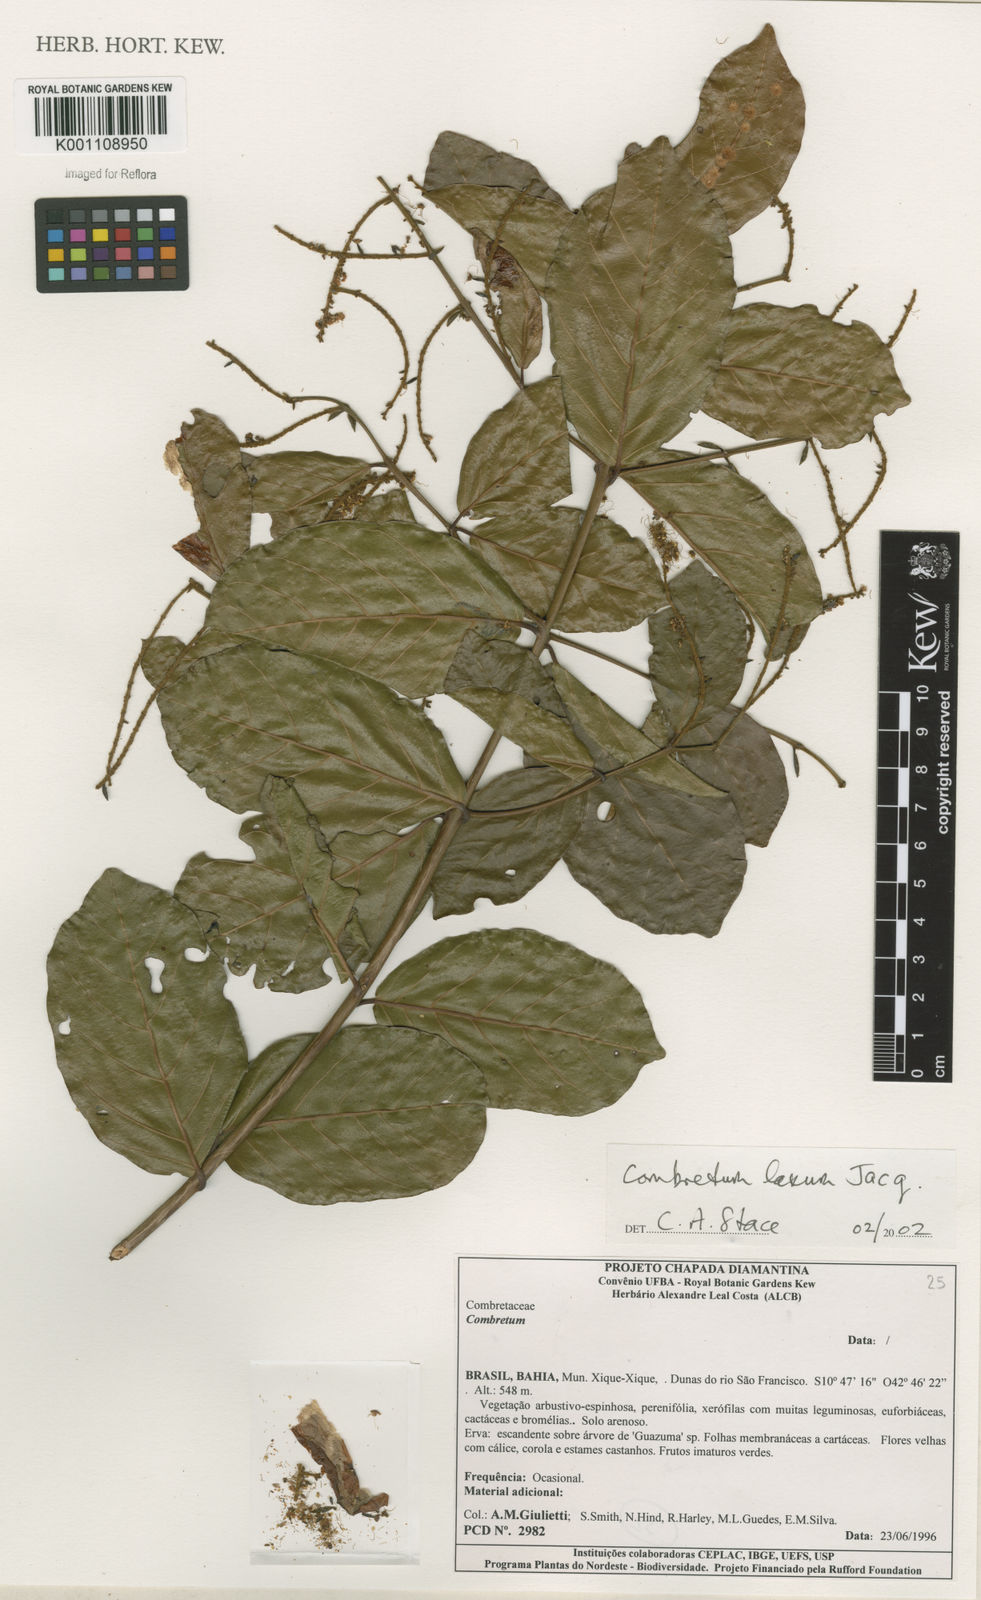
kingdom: Plantae
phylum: Tracheophyta
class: Magnoliopsida
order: Myrtales
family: Combretaceae
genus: Combretum
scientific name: Combretum laxum
